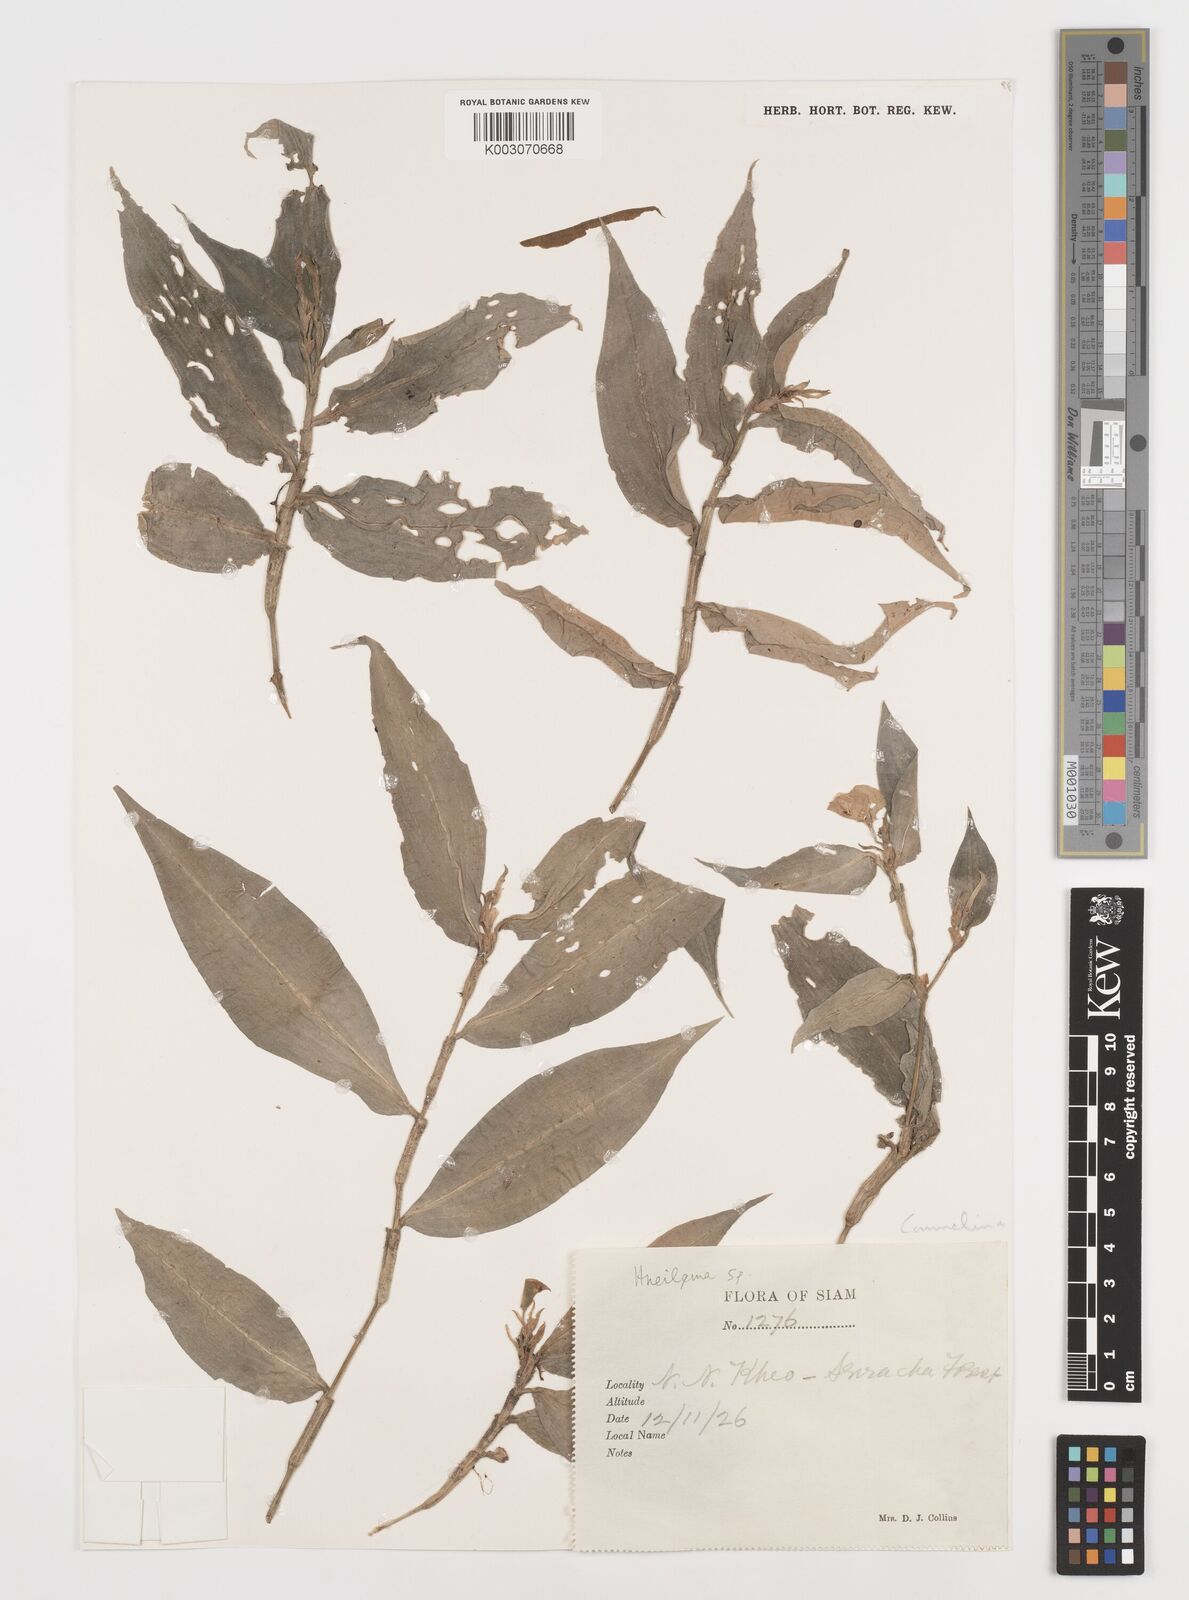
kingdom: Plantae
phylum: Tracheophyta
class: Liliopsida
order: Commelinales
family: Commelinaceae
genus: Commelina
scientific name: Commelina
